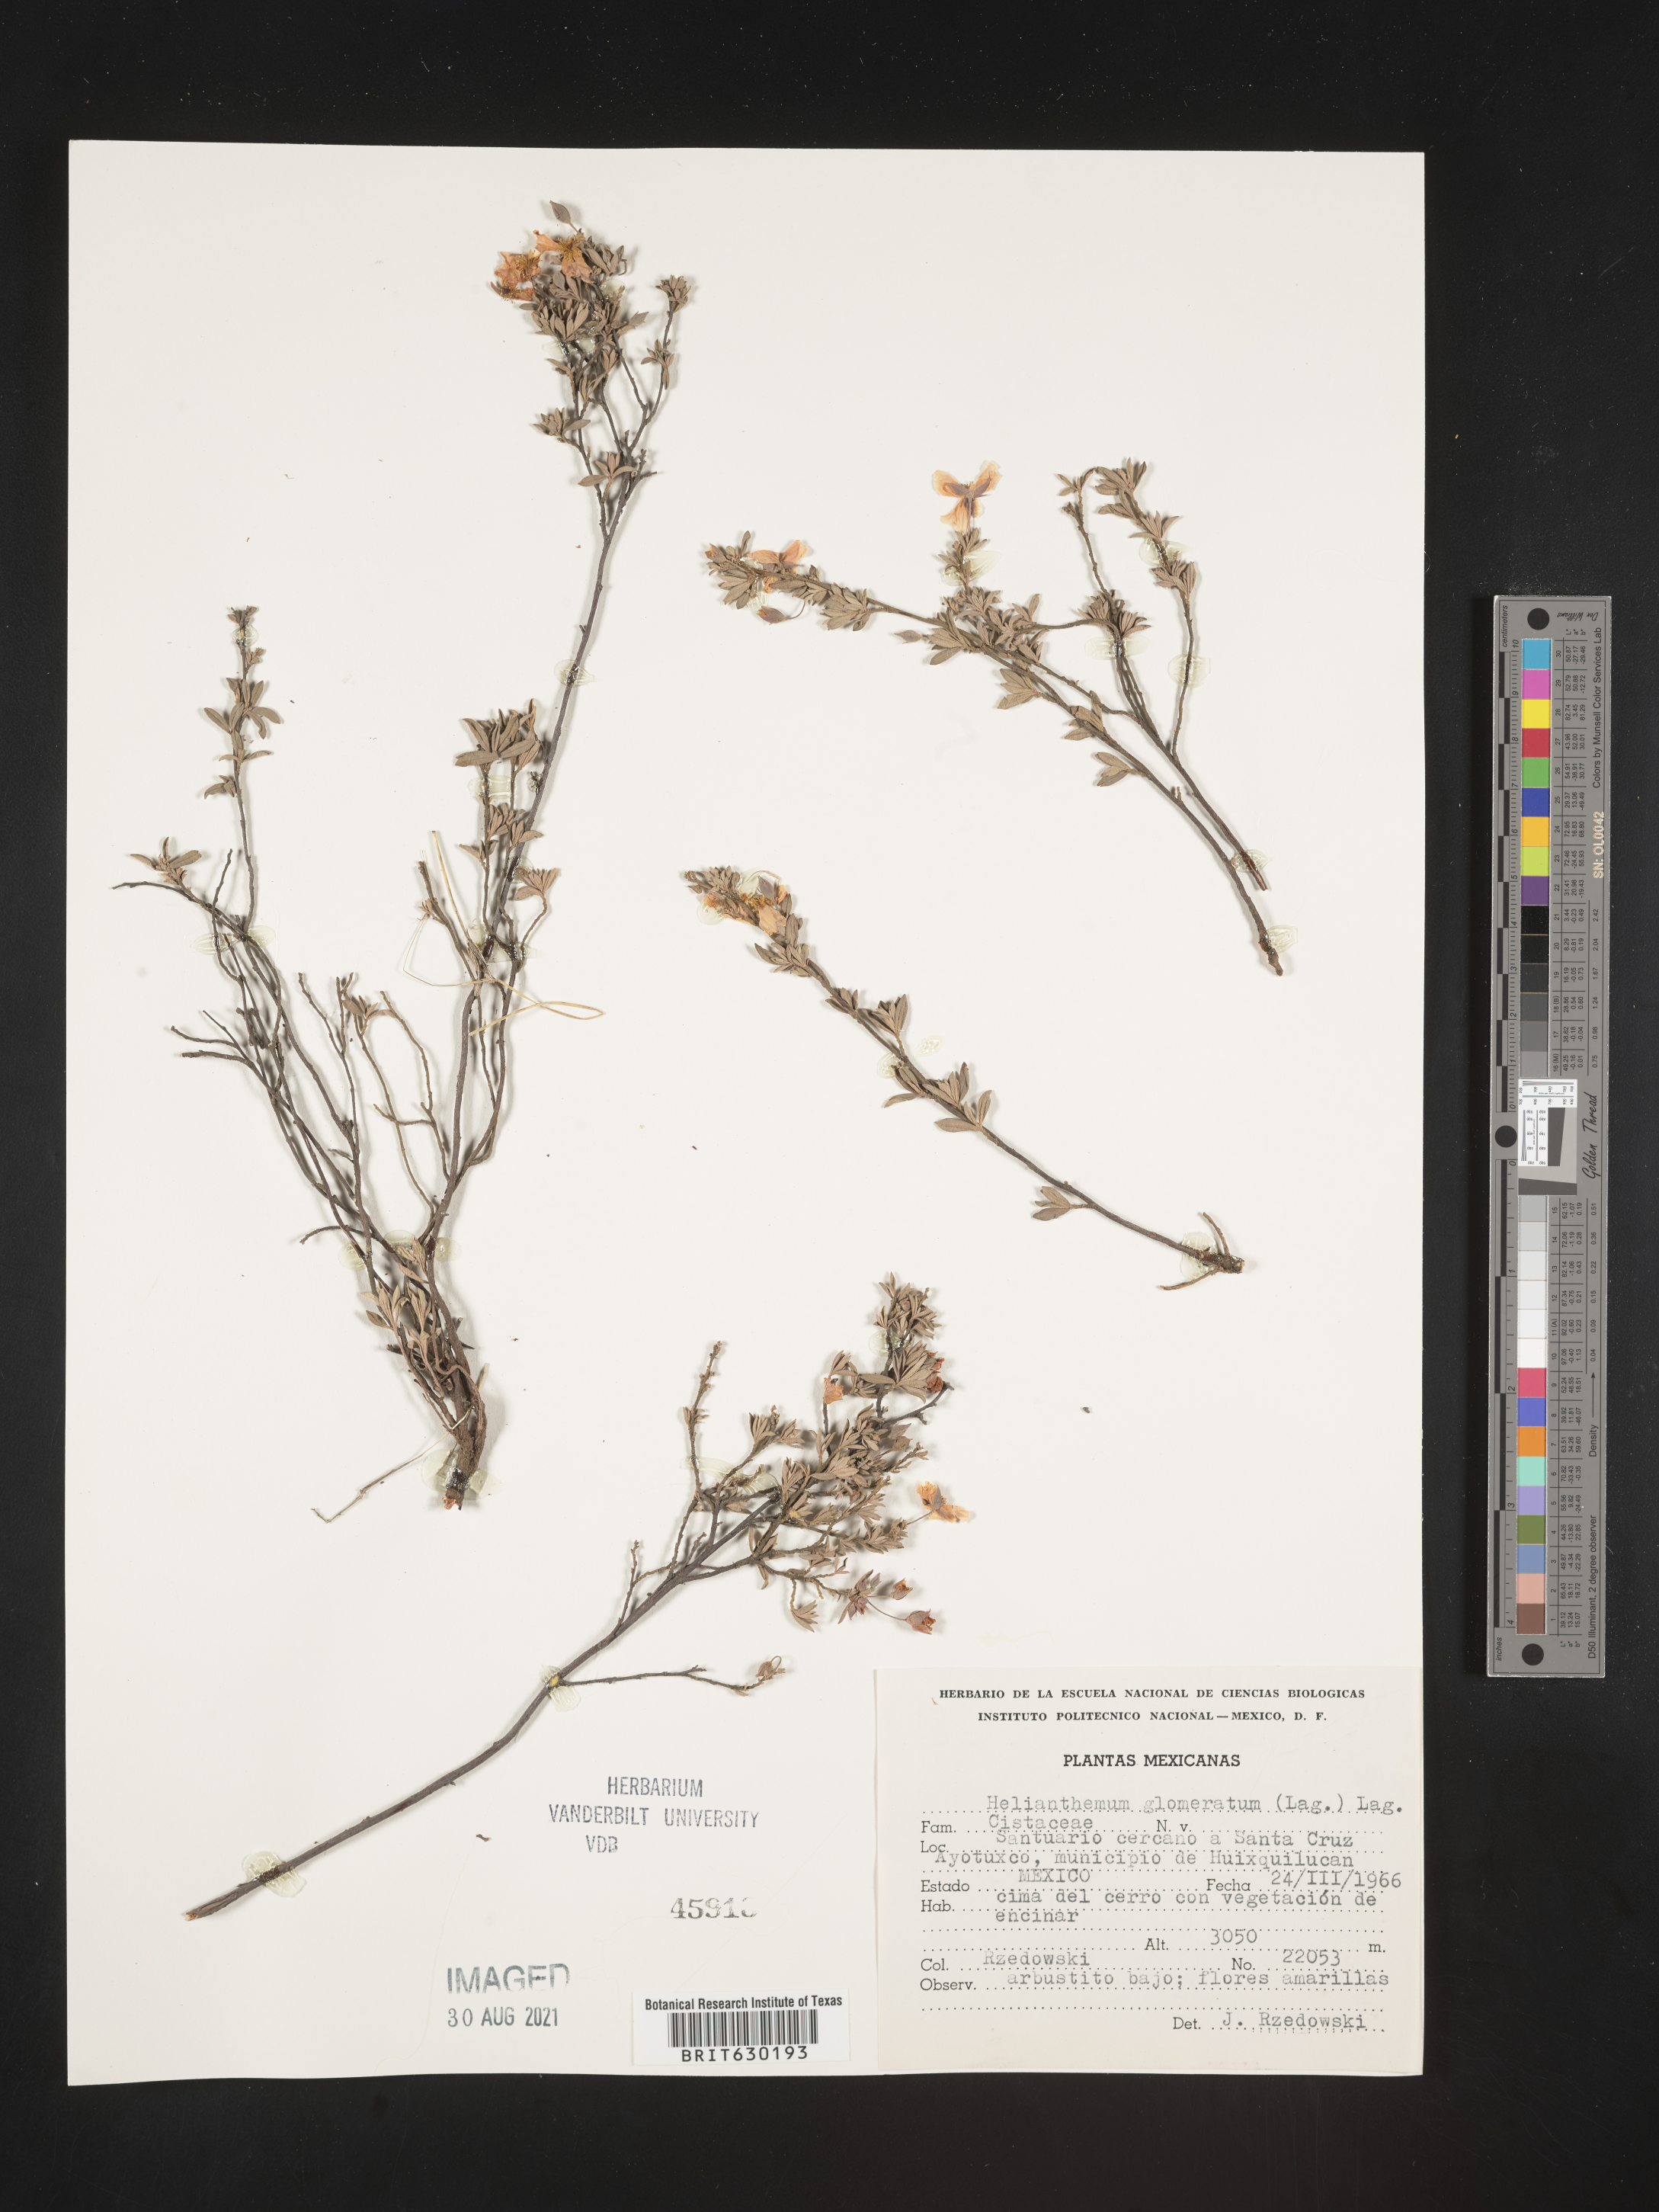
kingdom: Plantae
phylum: Tracheophyta
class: Magnoliopsida
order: Malvales
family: Cistaceae
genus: Helianthemum
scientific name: Helianthemum
